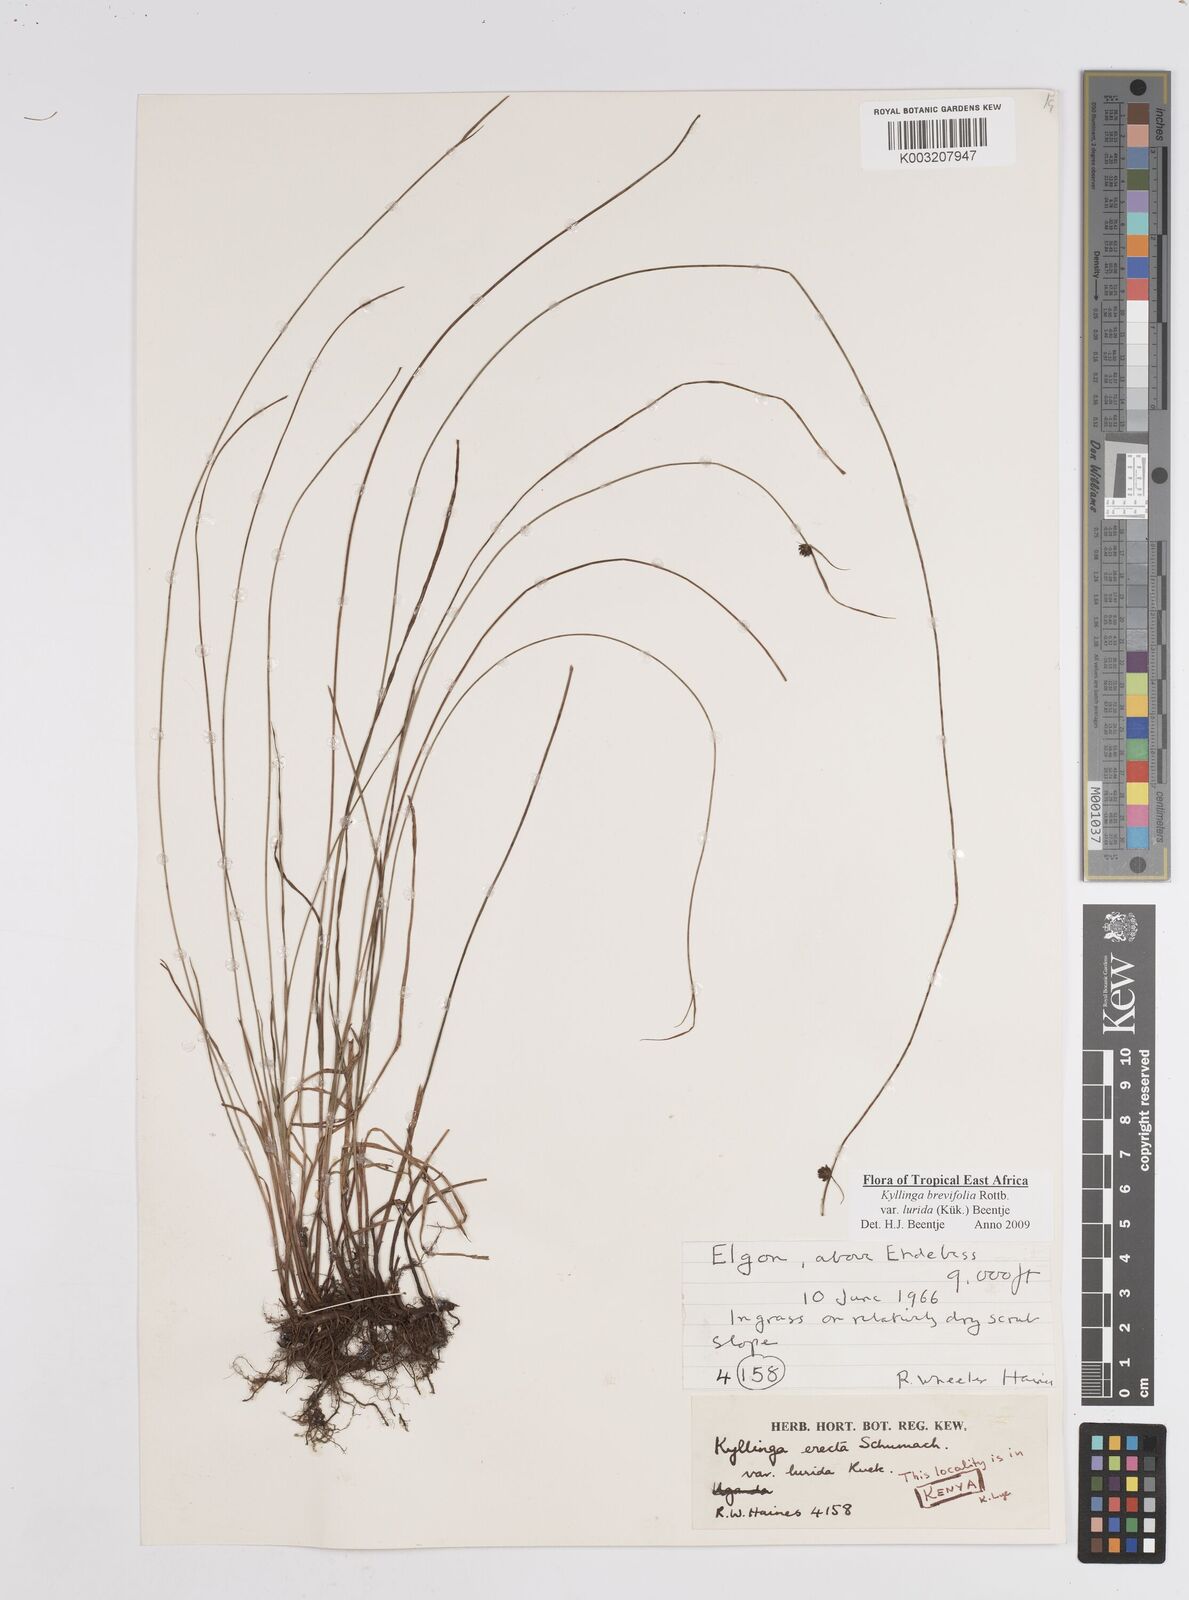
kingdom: Plantae
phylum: Tracheophyta
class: Liliopsida
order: Poales
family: Cyperaceae
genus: Cyperus
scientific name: Cyperus erectus
